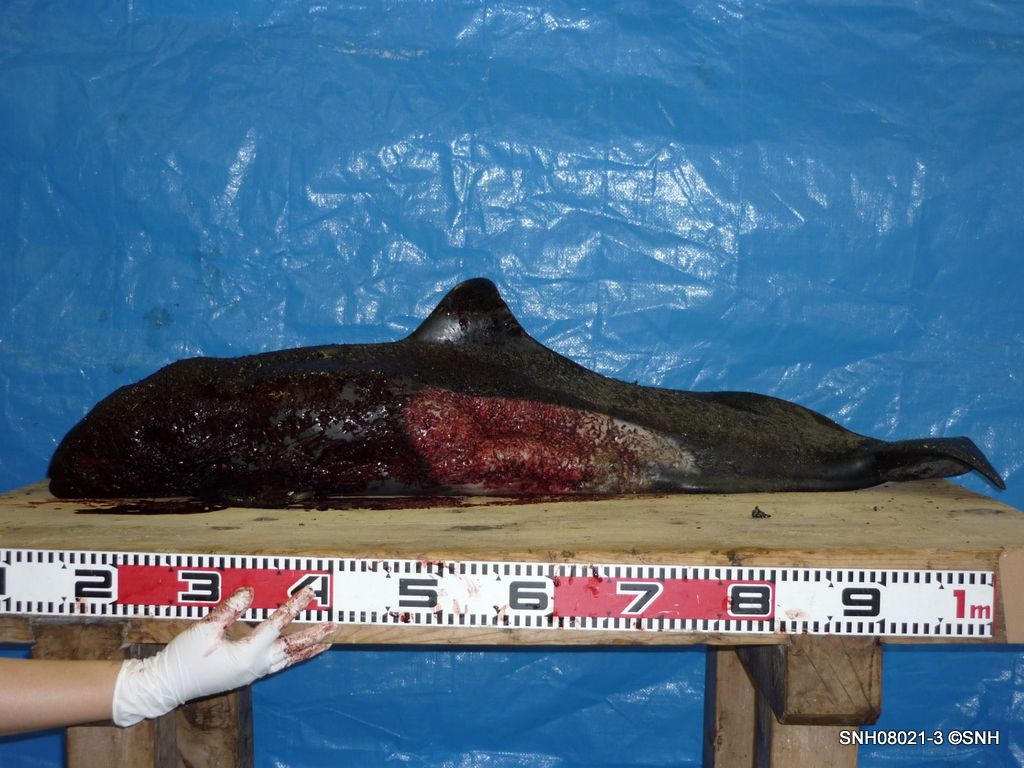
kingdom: Animalia
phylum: Chordata
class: Mammalia
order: Cetacea
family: Phocoenidae
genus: Phocoenoides
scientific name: Phocoenoides dalli
